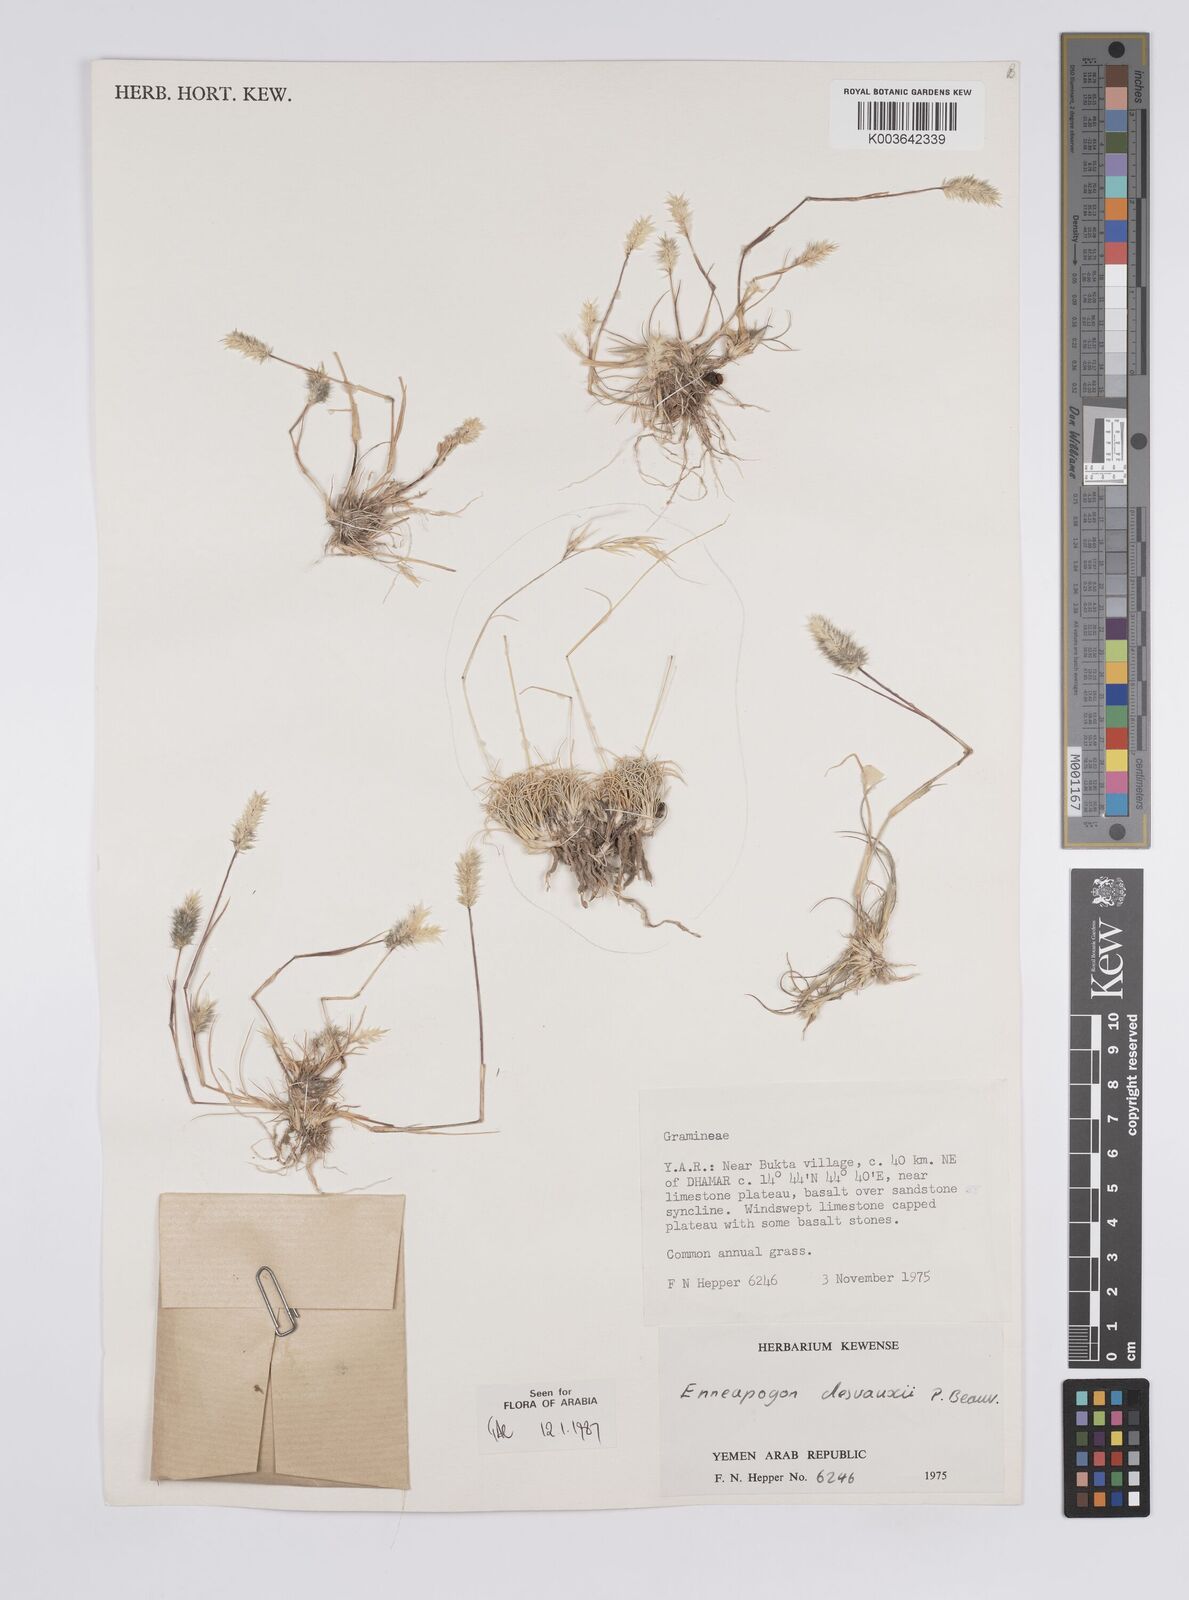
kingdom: Plantae
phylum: Tracheophyta
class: Liliopsida
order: Poales
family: Poaceae
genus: Enneapogon
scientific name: Enneapogon desvauxii
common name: Feather pappus grass
